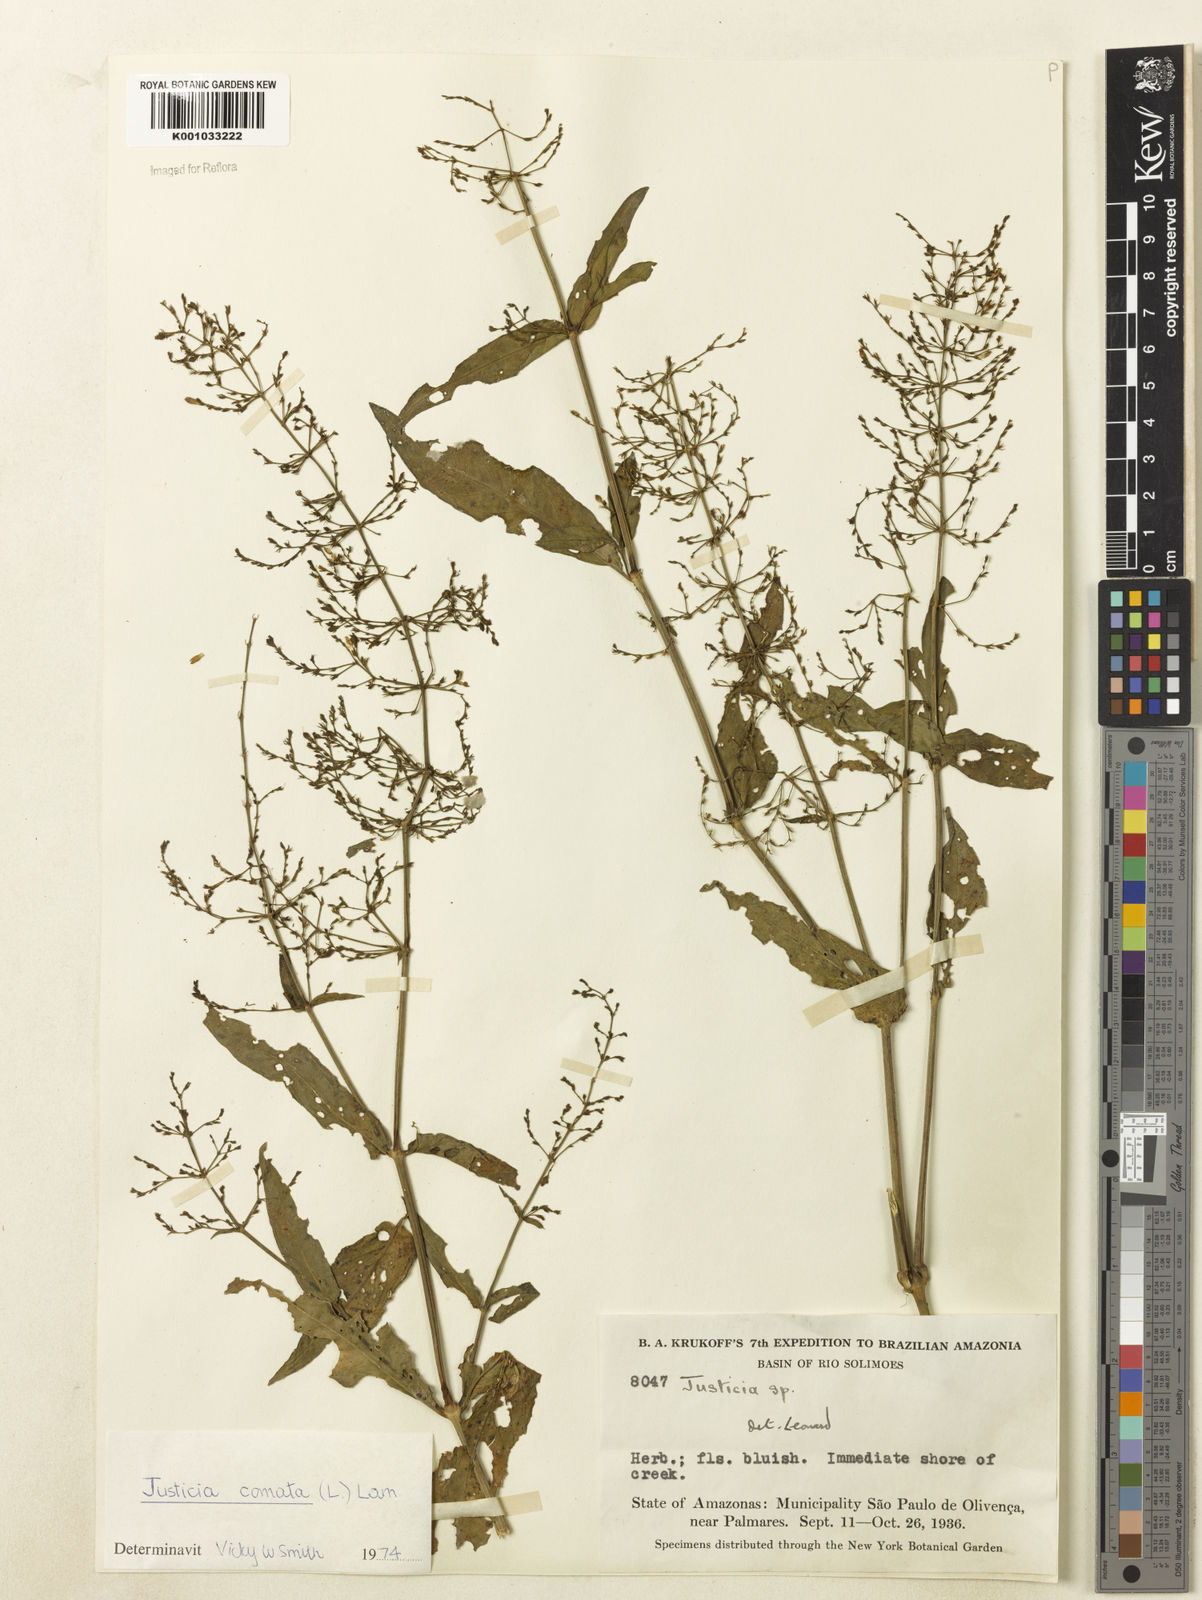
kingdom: Plantae
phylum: Tracheophyta
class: Magnoliopsida
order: Lamiales
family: Acanthaceae
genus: Dianthera
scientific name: Dianthera comata
